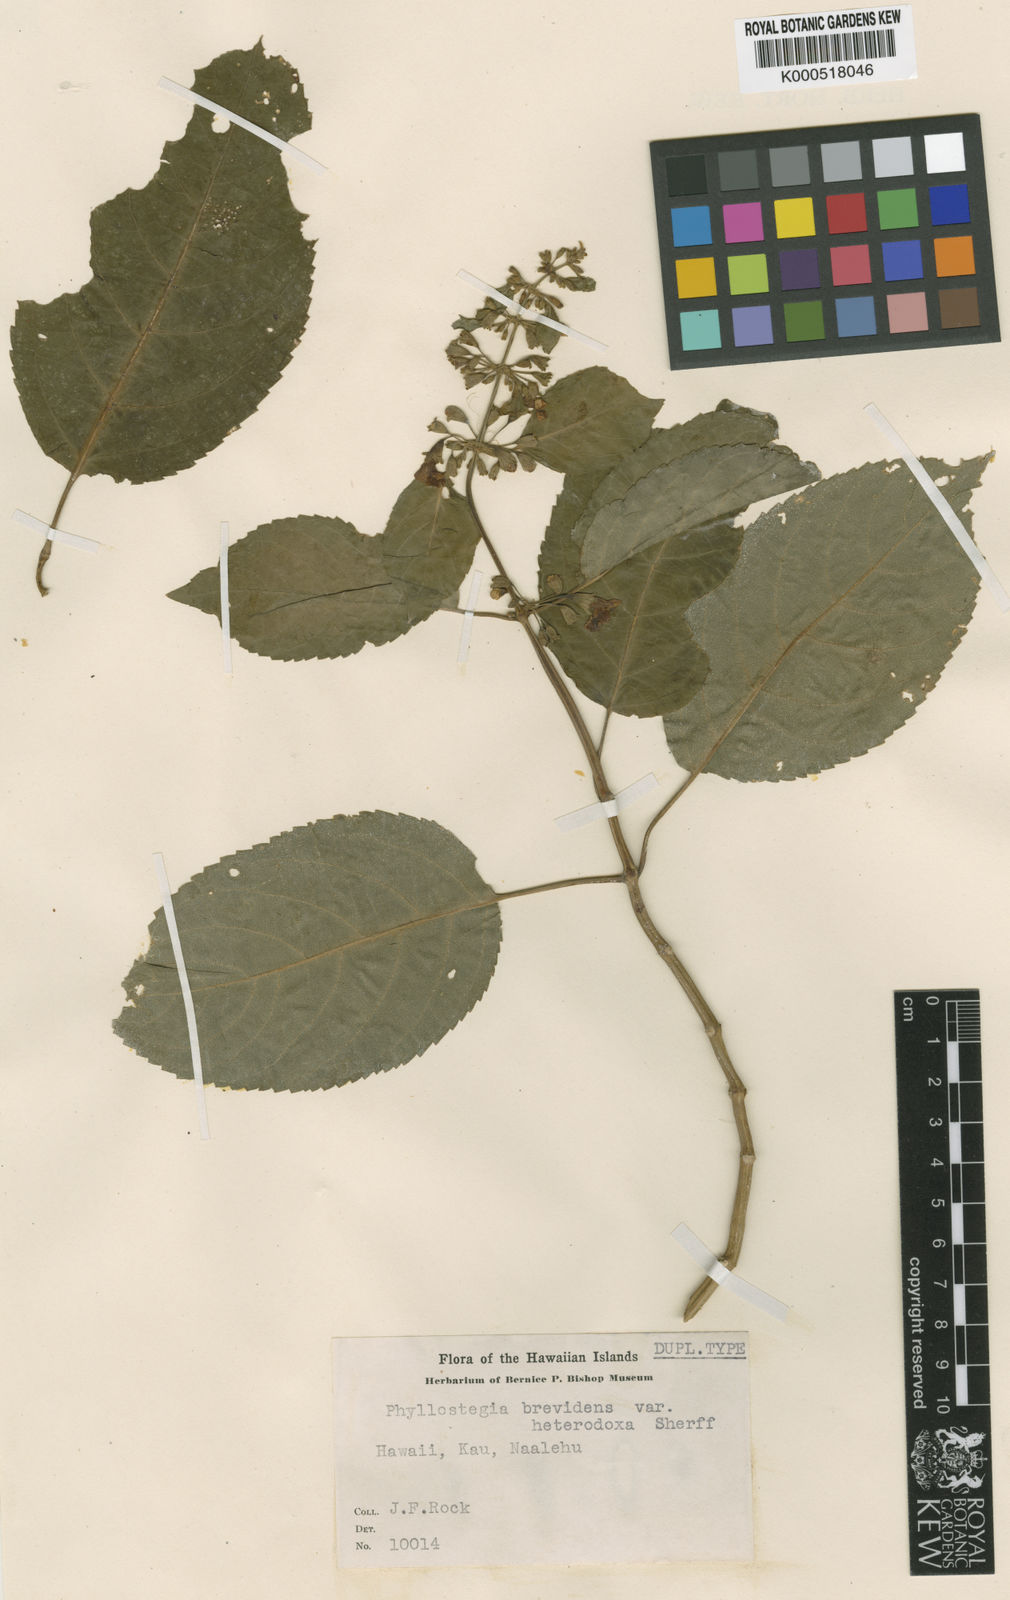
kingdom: Plantae
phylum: Tracheophyta
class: Magnoliopsida
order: Lamiales
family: Lamiaceae
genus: Phyllostegia
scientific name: Phyllostegia brevidens
